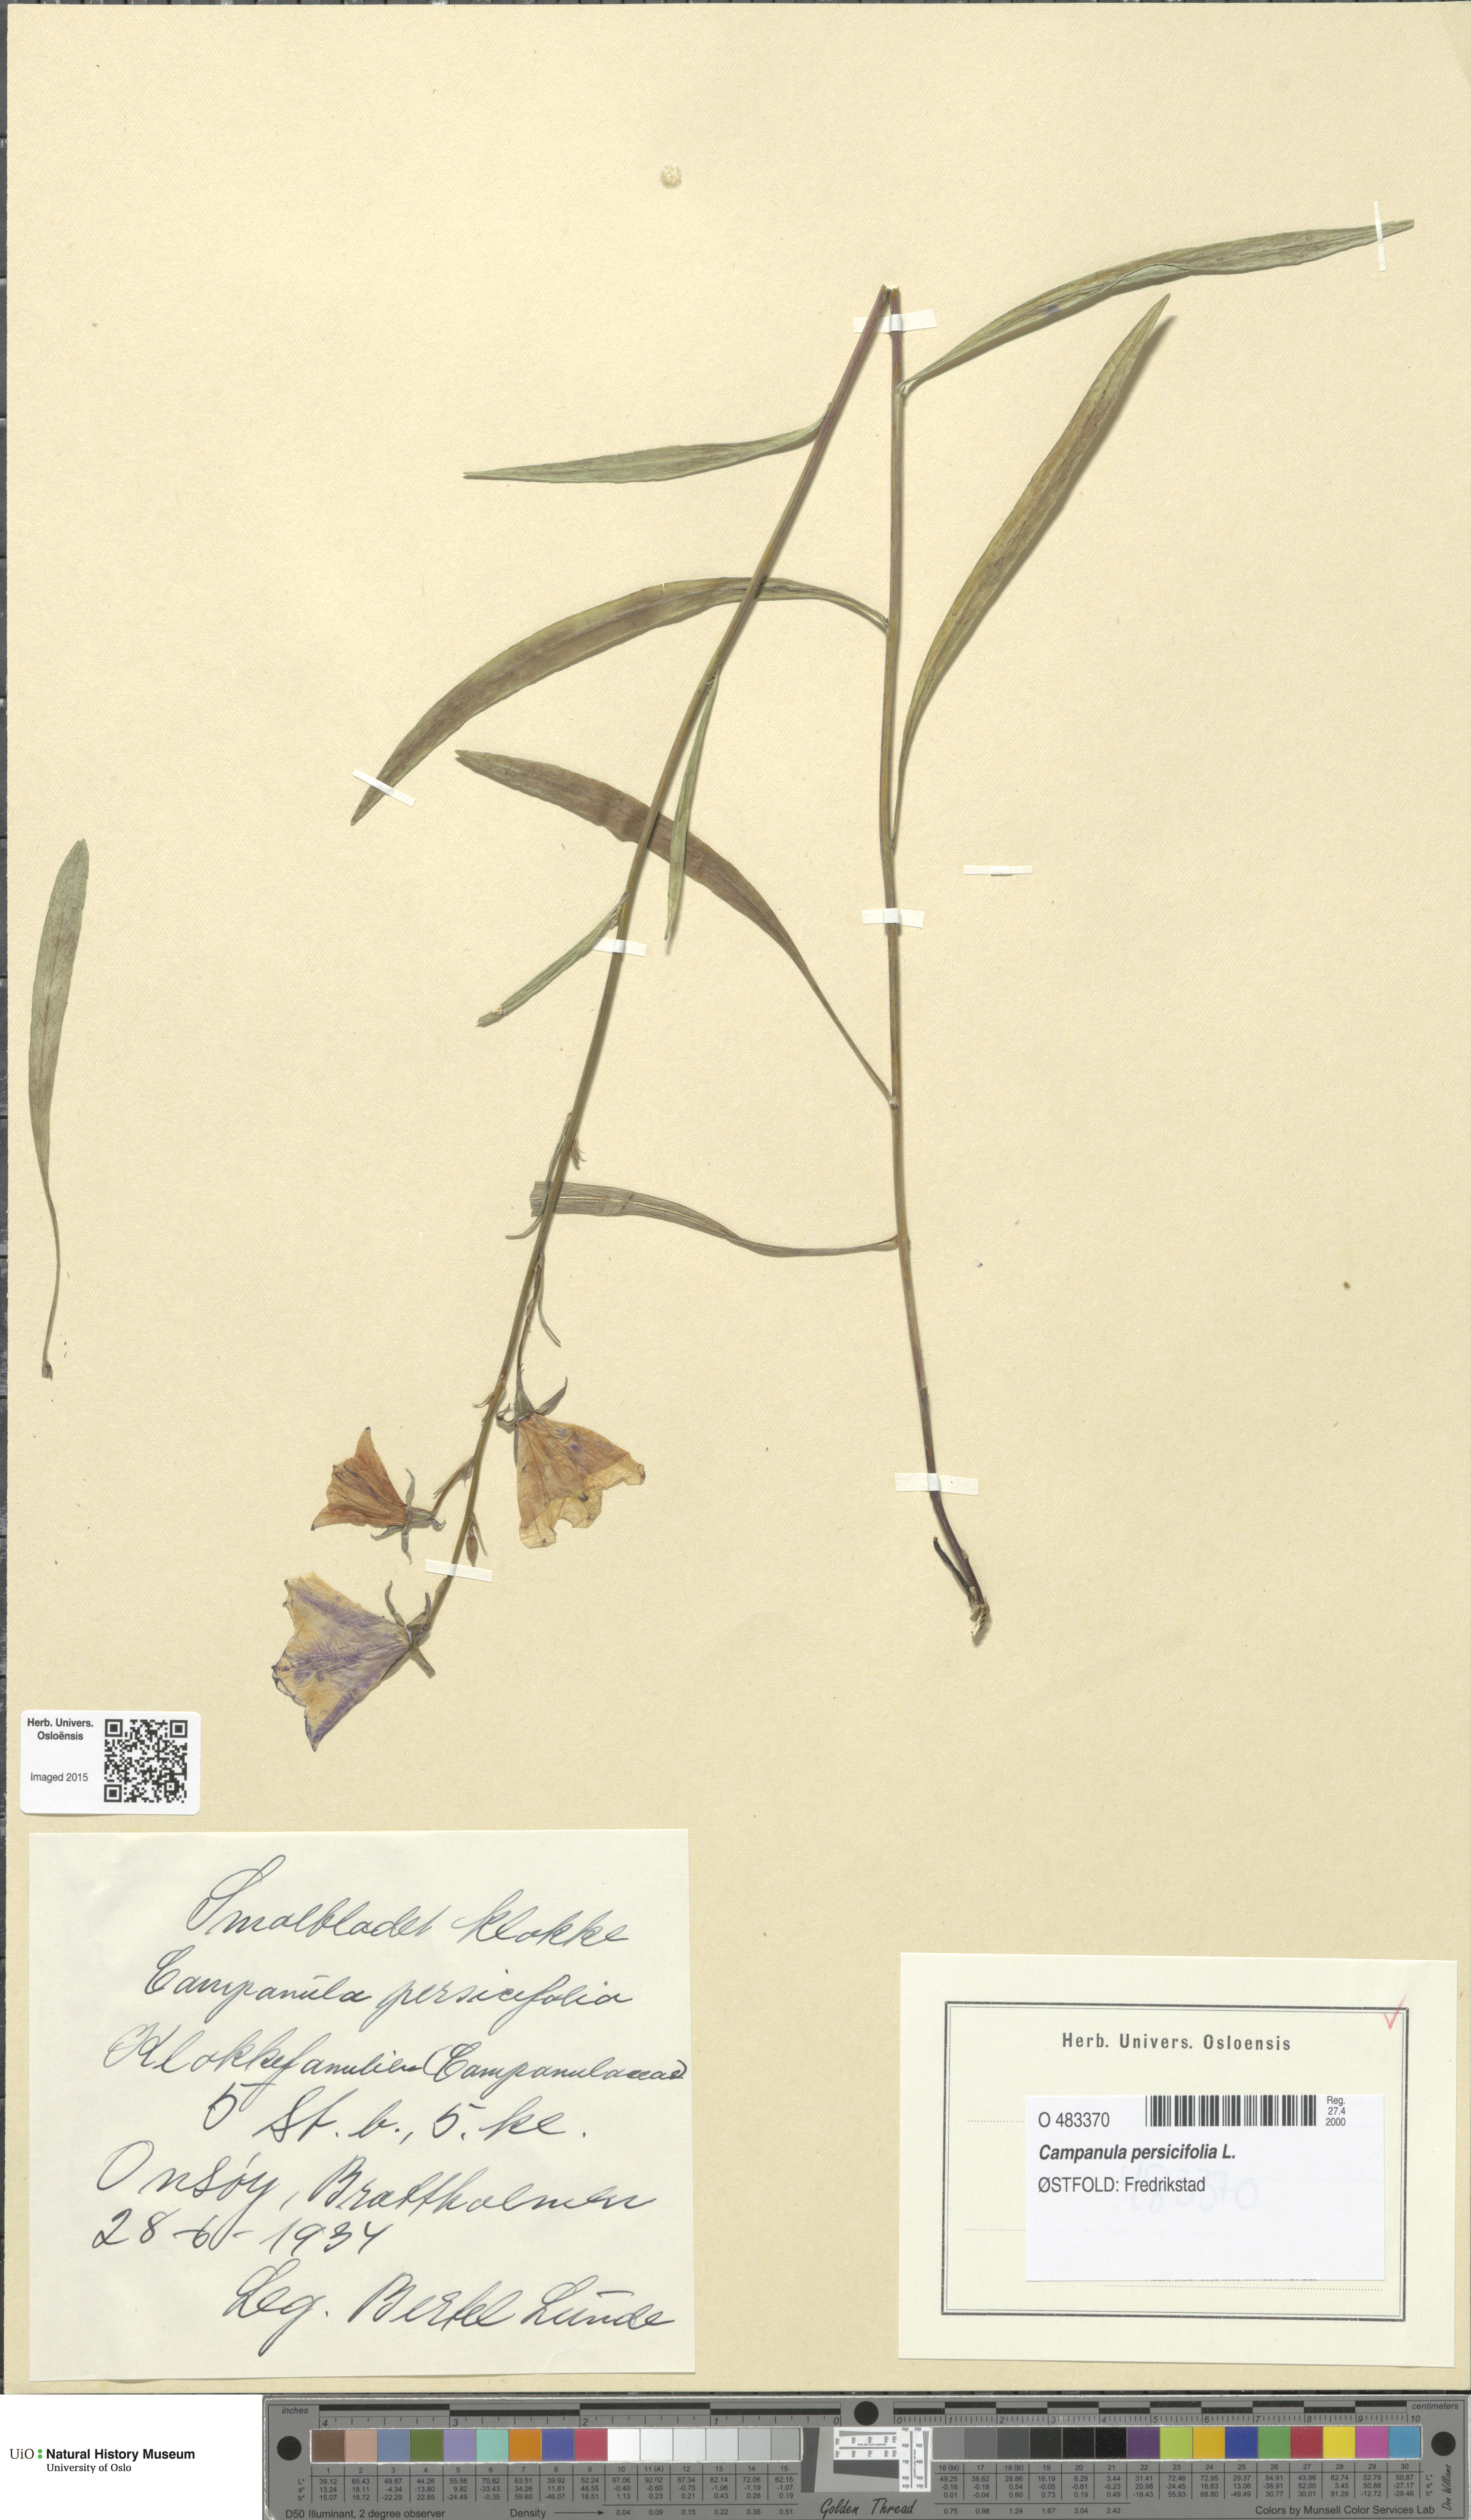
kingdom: Plantae
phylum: Tracheophyta
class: Magnoliopsida
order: Asterales
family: Campanulaceae
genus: Campanula
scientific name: Campanula persicifolia
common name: Peach-leaved bellflower
